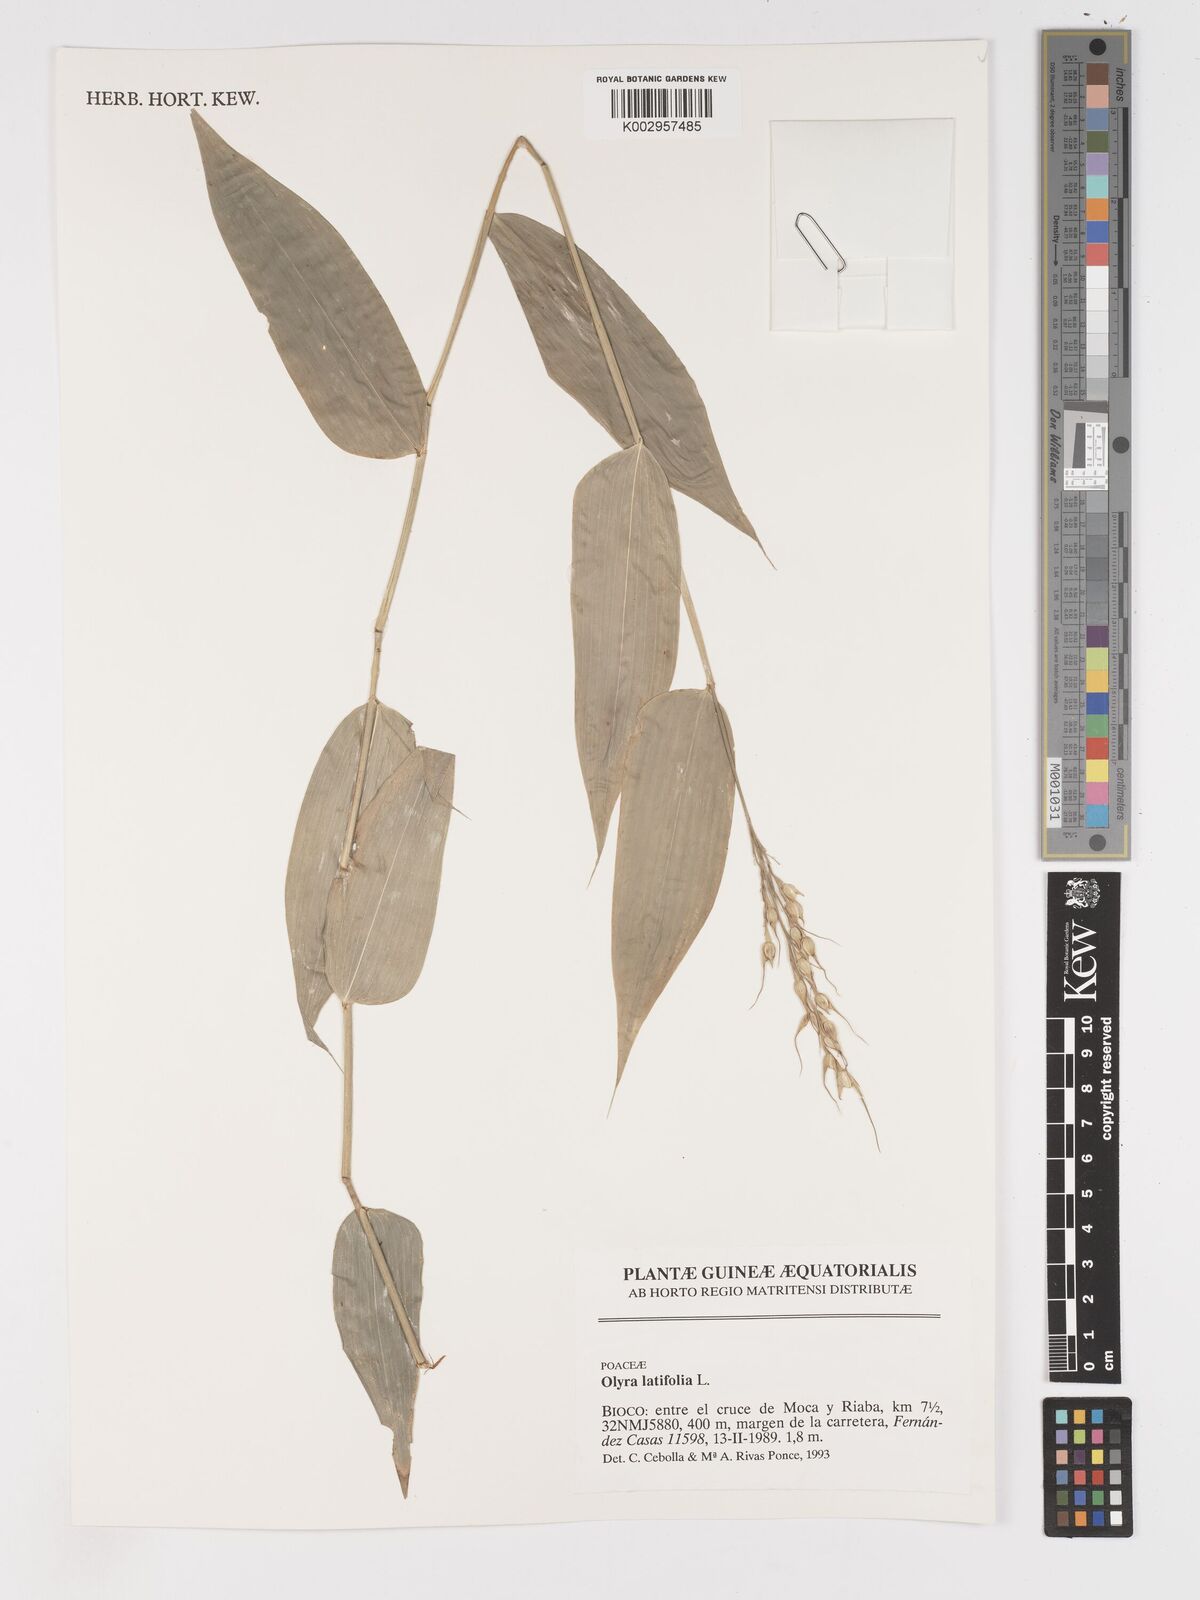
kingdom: Plantae
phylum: Tracheophyta
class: Liliopsida
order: Poales
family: Poaceae
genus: Olyra
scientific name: Olyra latifolia
